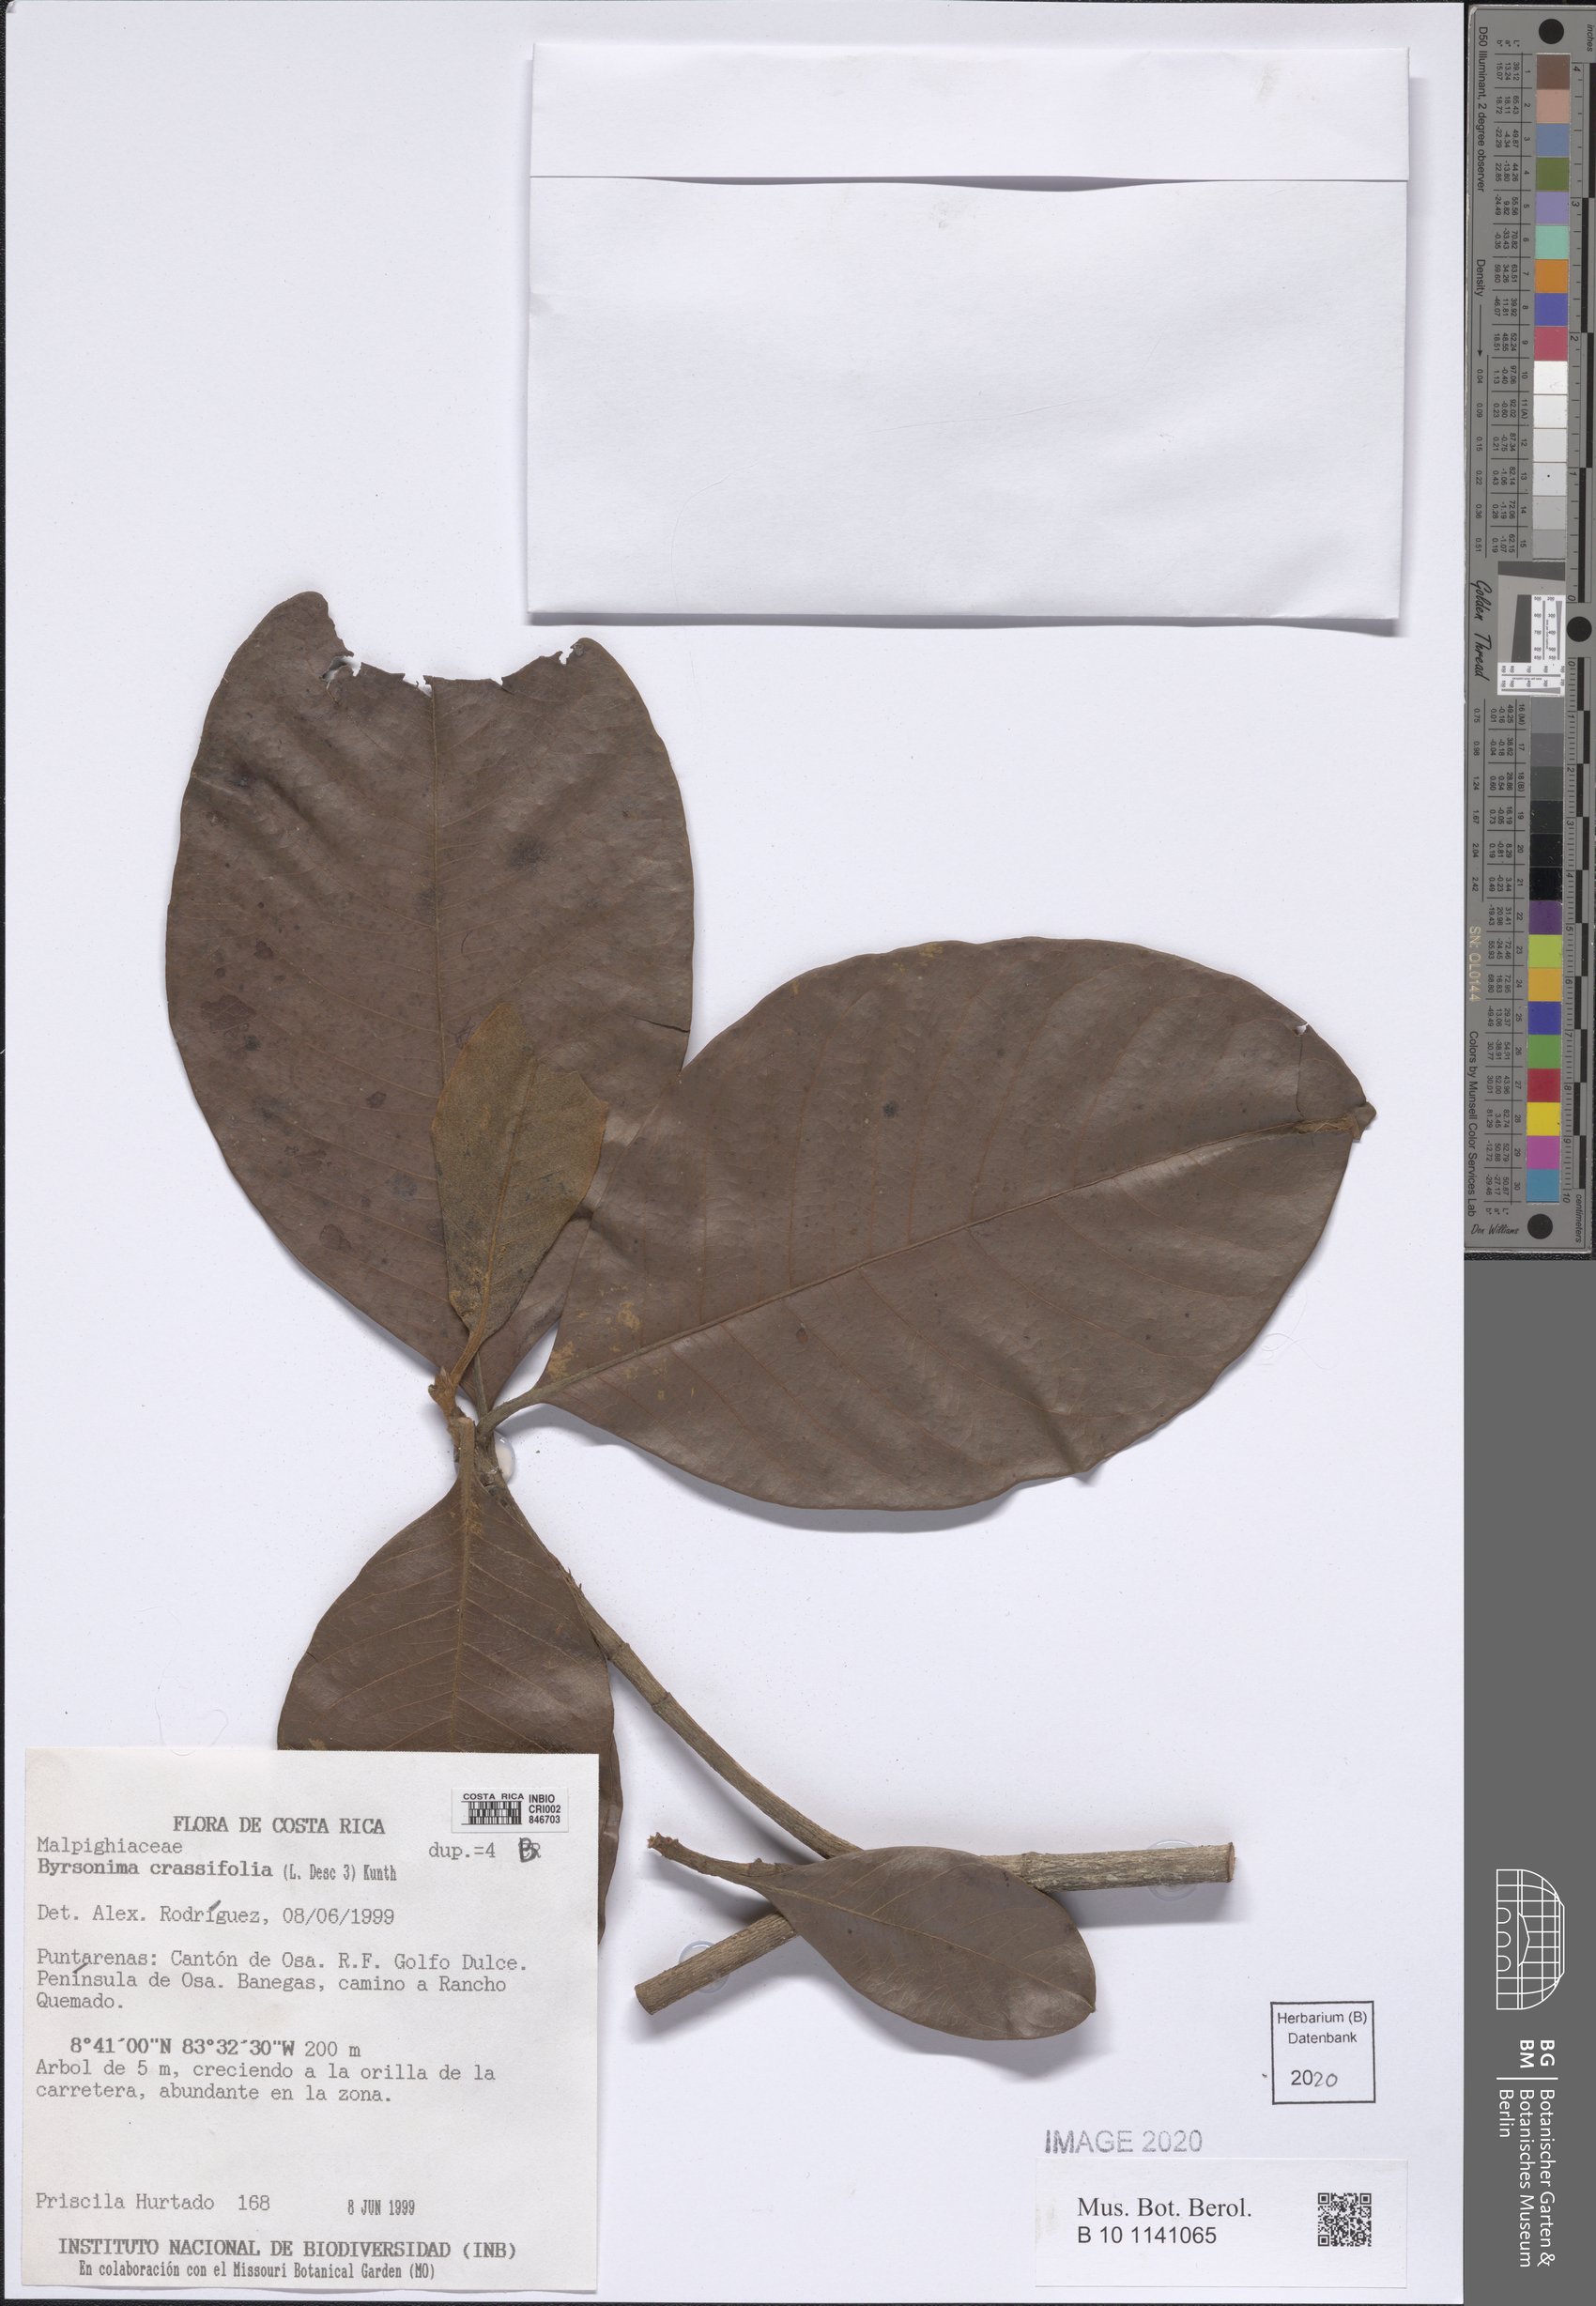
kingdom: Plantae
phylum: Tracheophyta
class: Magnoliopsida
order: Malpighiales
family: Malpighiaceae
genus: Byrsonima
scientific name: Byrsonima crassifolia
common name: Golden spoon
